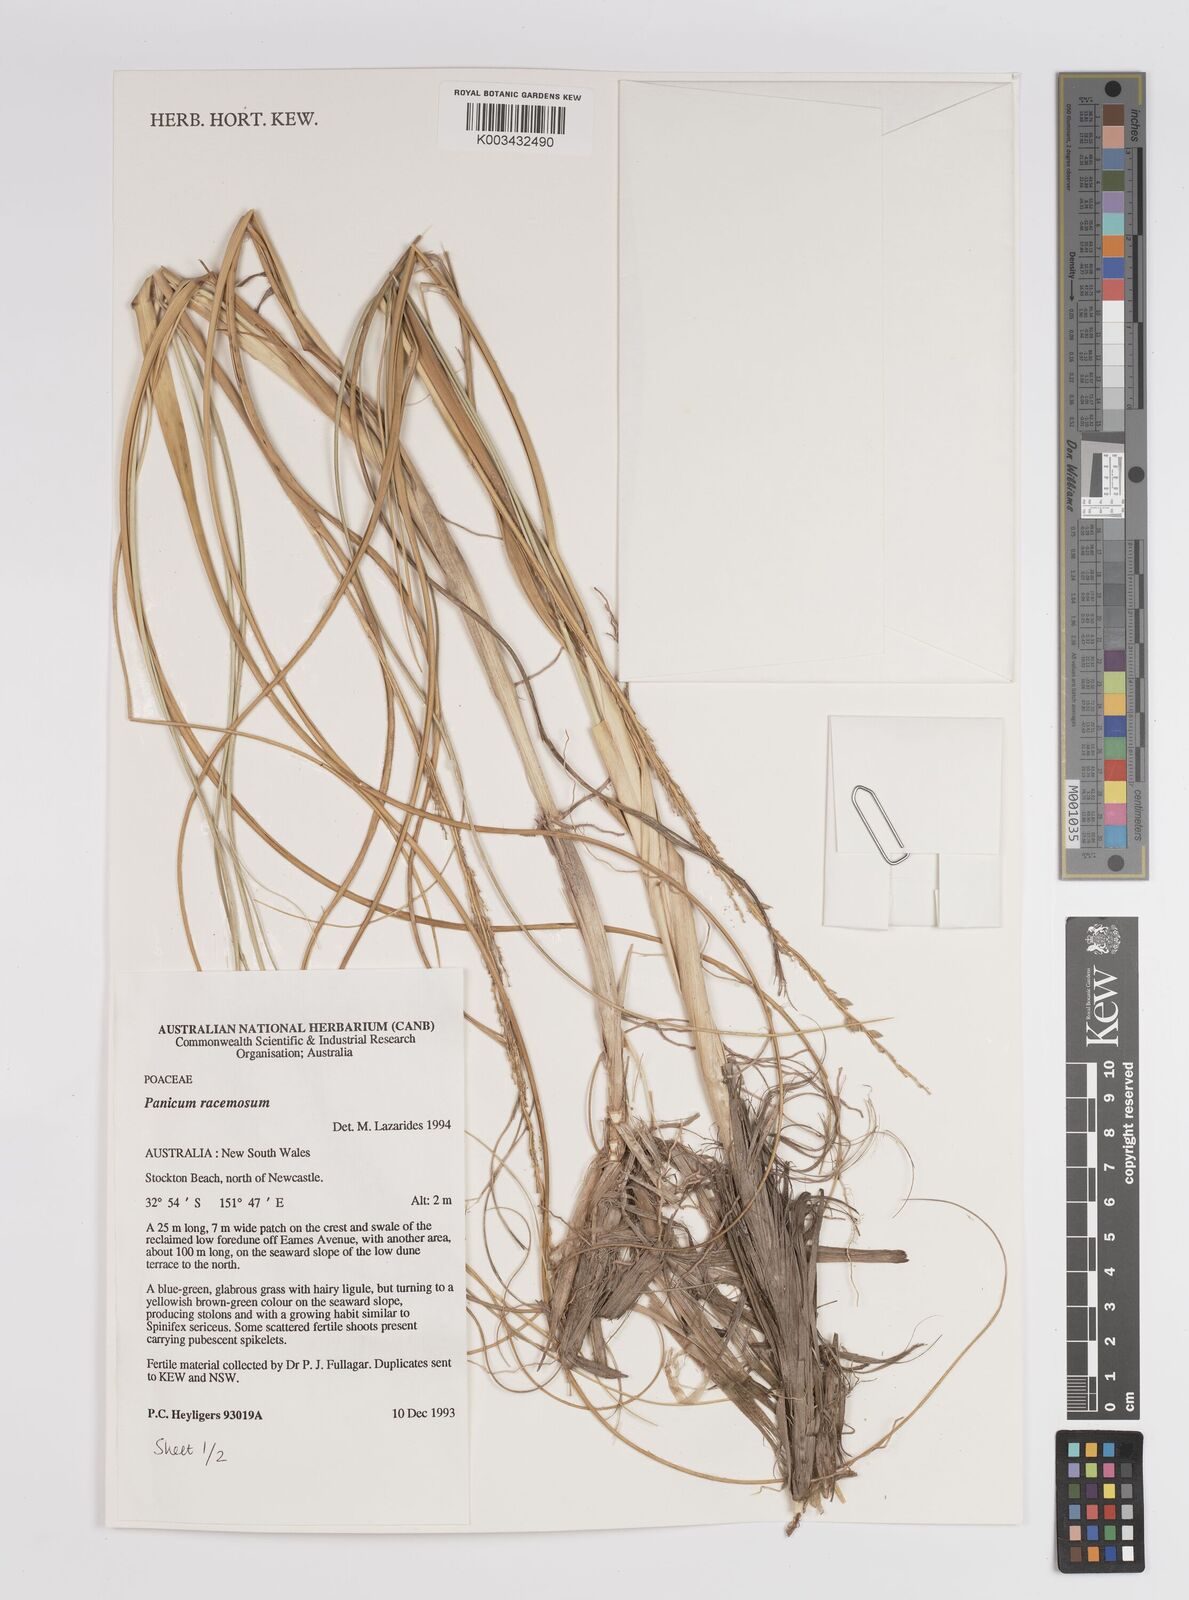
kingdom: Plantae
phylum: Tracheophyta
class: Liliopsida
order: Poales
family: Poaceae
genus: Panicum
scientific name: Panicum racemosum
